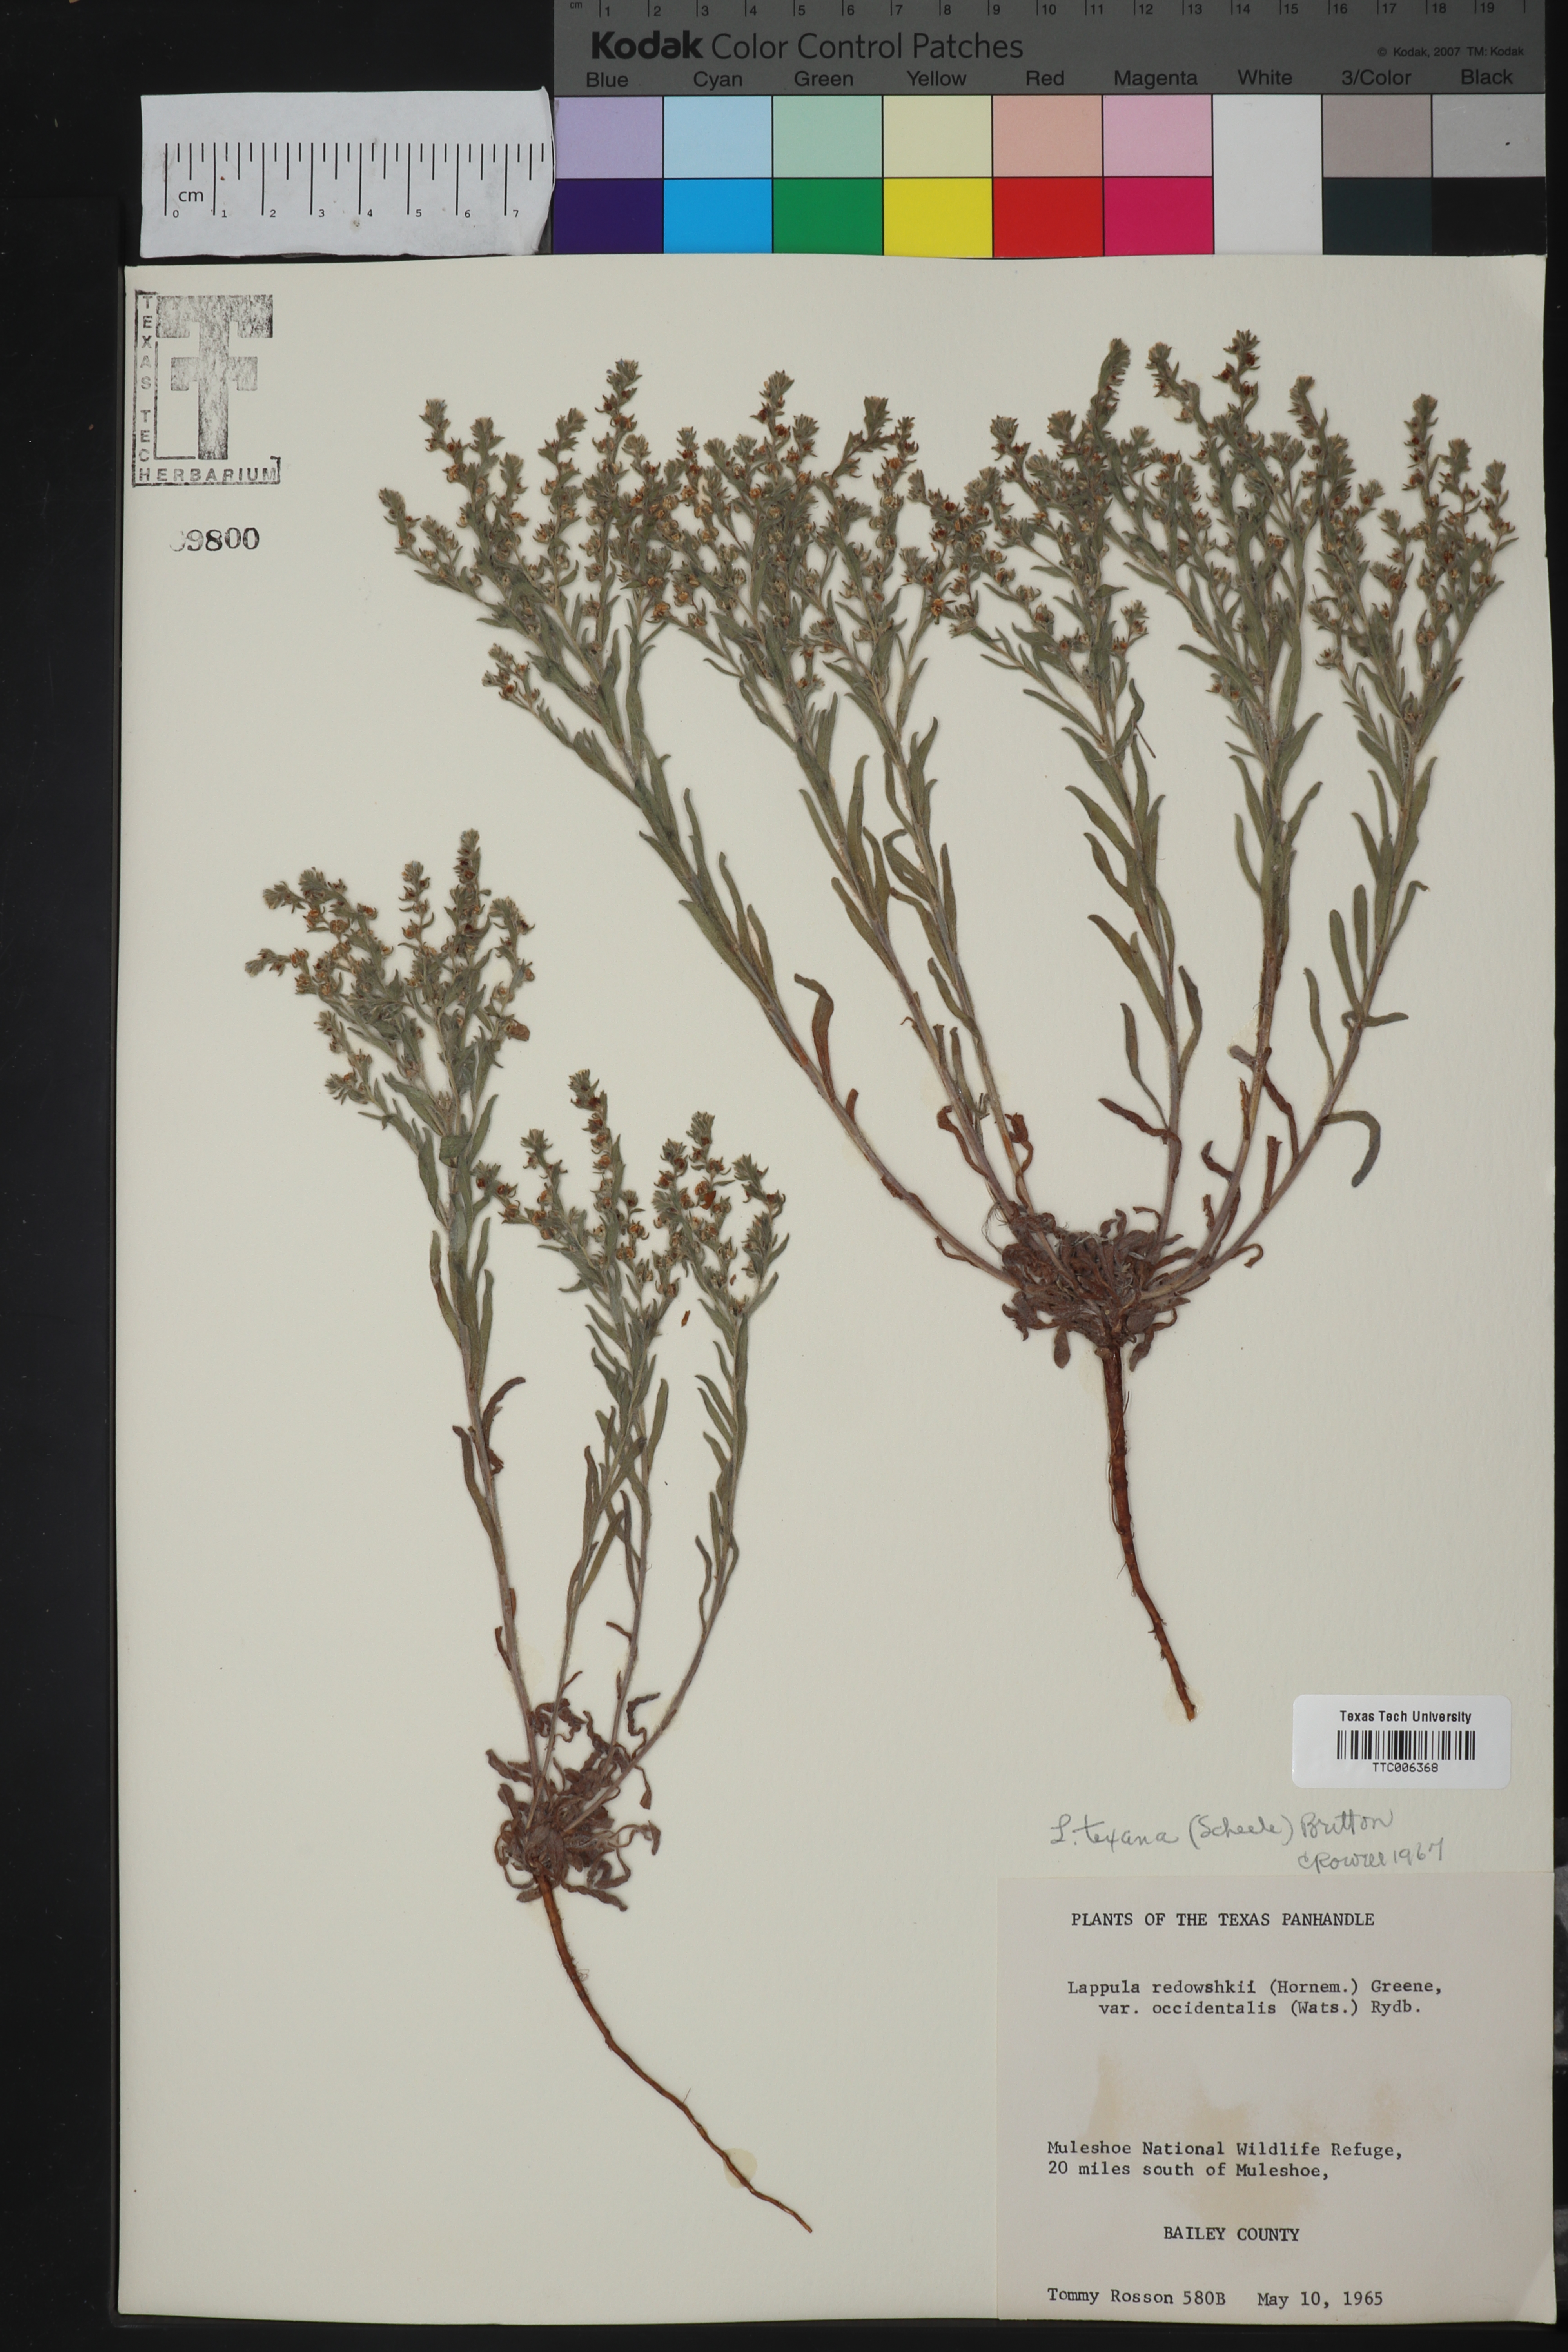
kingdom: Plantae
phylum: Tracheophyta
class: Magnoliopsida
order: Boraginales
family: Boraginaceae
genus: Lappula
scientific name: Lappula occidentalis
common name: Western stickseed
